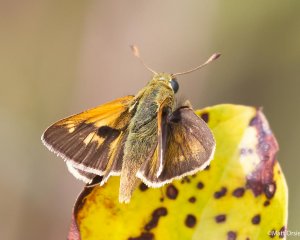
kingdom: Animalia
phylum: Arthropoda
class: Insecta
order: Lepidoptera
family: Hesperiidae
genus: Polites
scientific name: Polites
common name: Crossline Skipper
